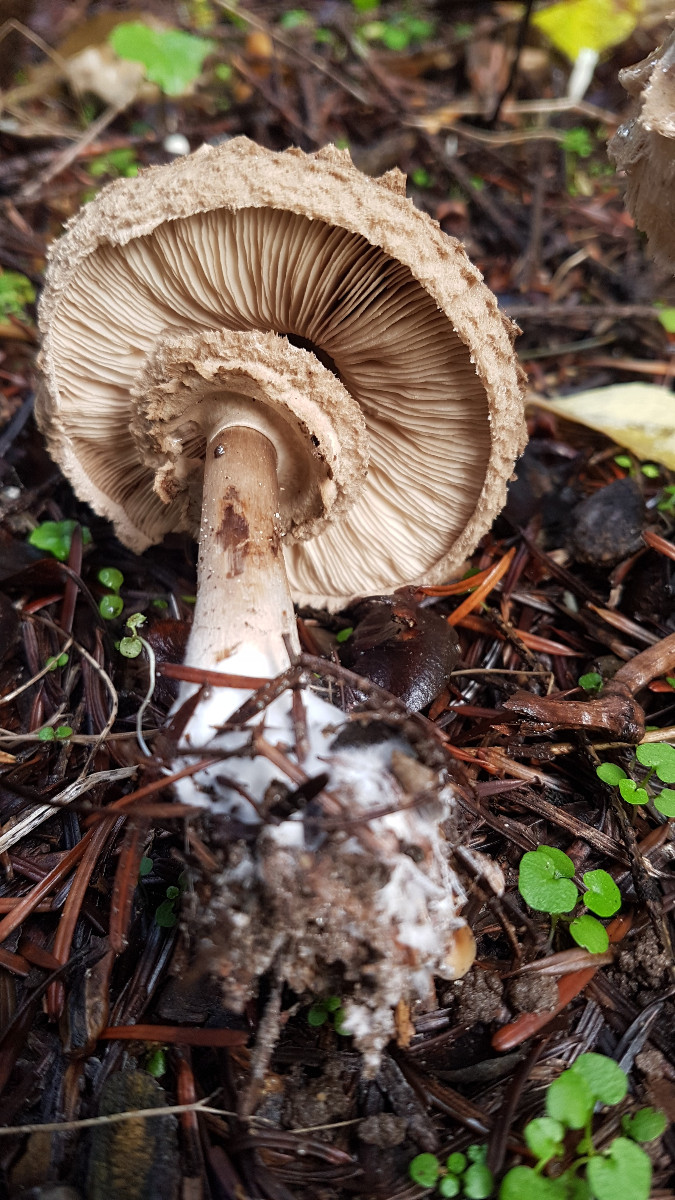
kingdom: Fungi
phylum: Basidiomycota
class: Agaricomycetes
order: Agaricales
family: Agaricaceae
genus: Chlorophyllum
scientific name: Chlorophyllum olivieri
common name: almindelig rabarberhat
